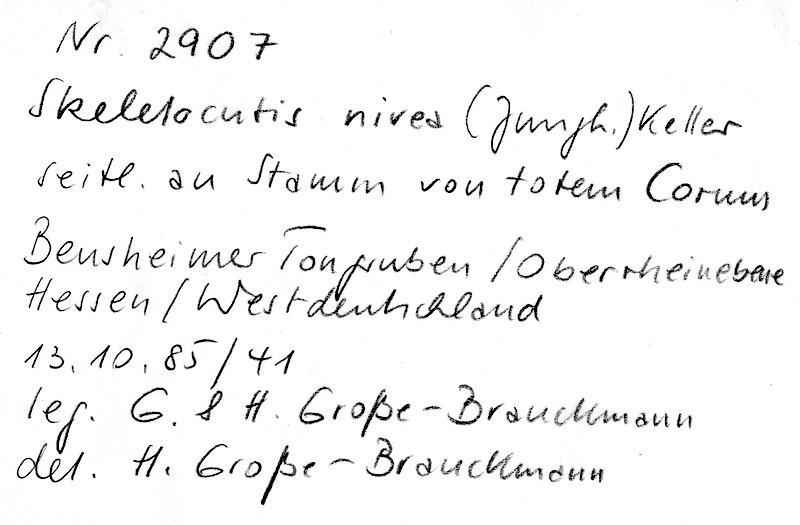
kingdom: Fungi
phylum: Basidiomycota
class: Agaricomycetes
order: Polyporales
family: Incrustoporiaceae
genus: Skeletocutis
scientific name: Skeletocutis nivea
